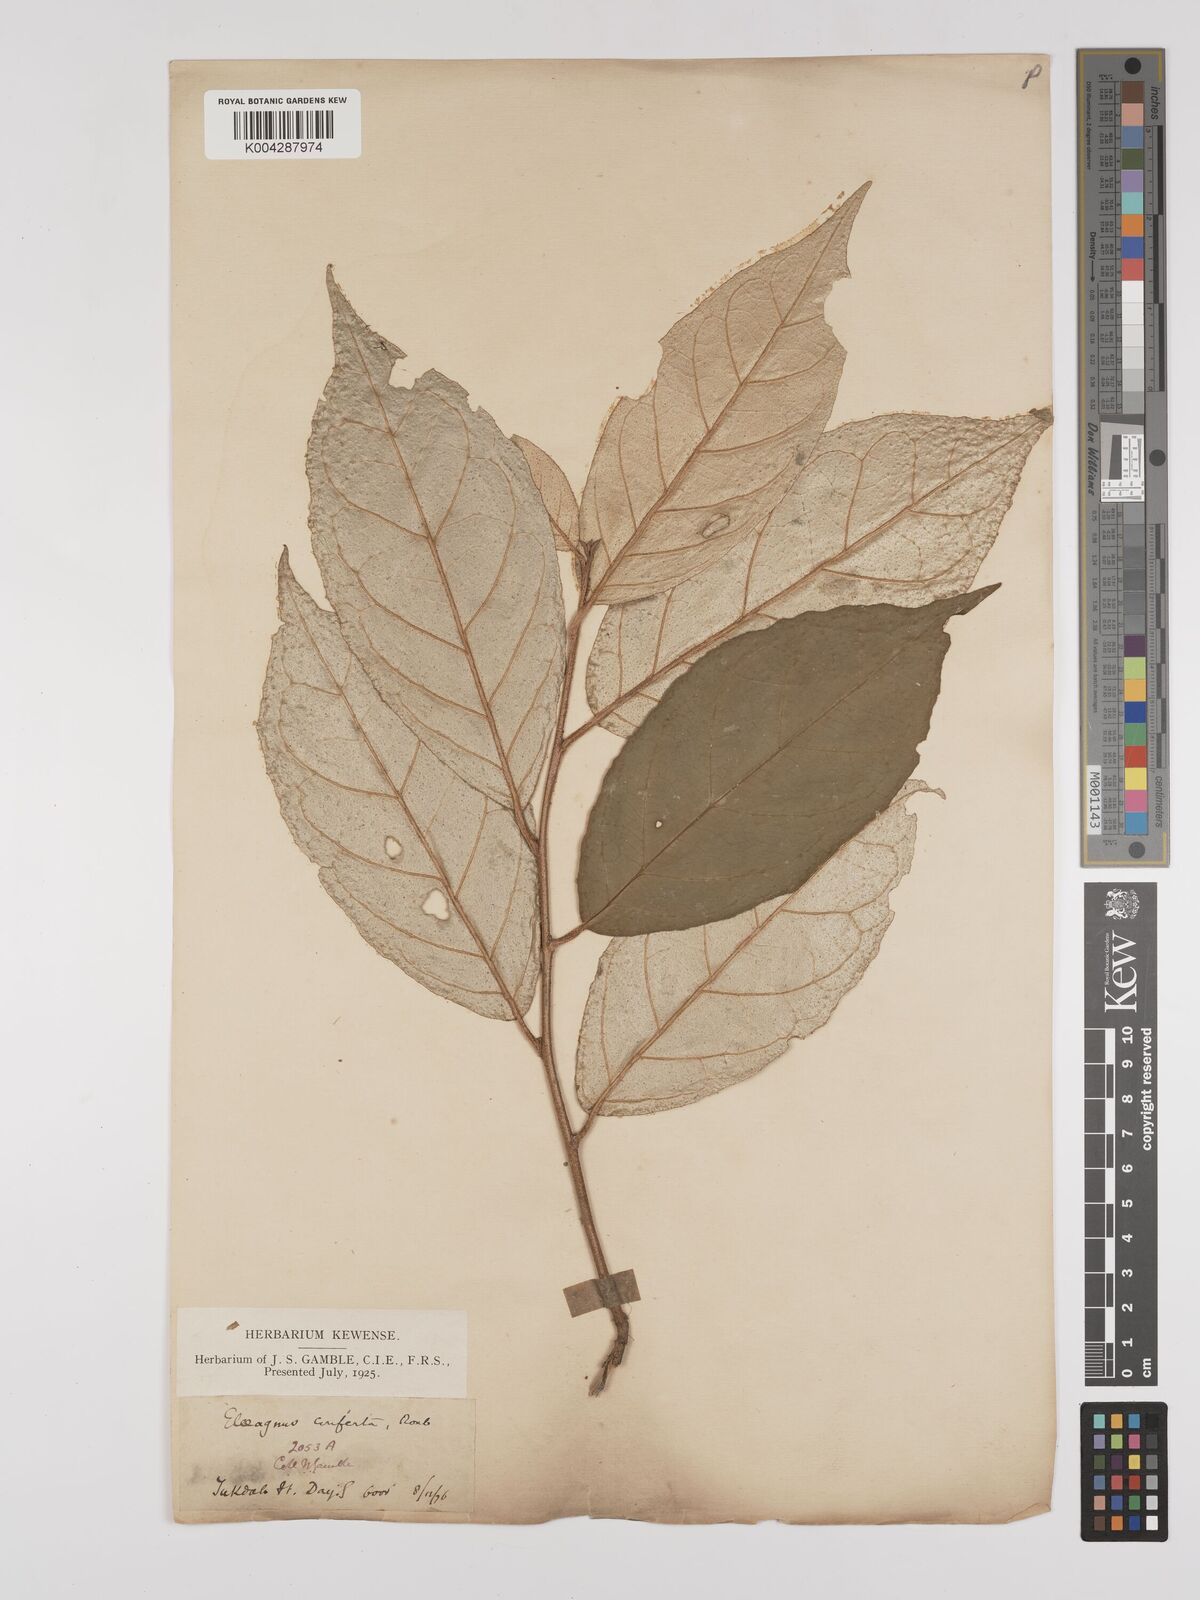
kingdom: Plantae
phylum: Tracheophyta
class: Magnoliopsida
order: Rosales
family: Elaeagnaceae
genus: Elaeagnus
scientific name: Elaeagnus latifolia
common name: Oleaster
